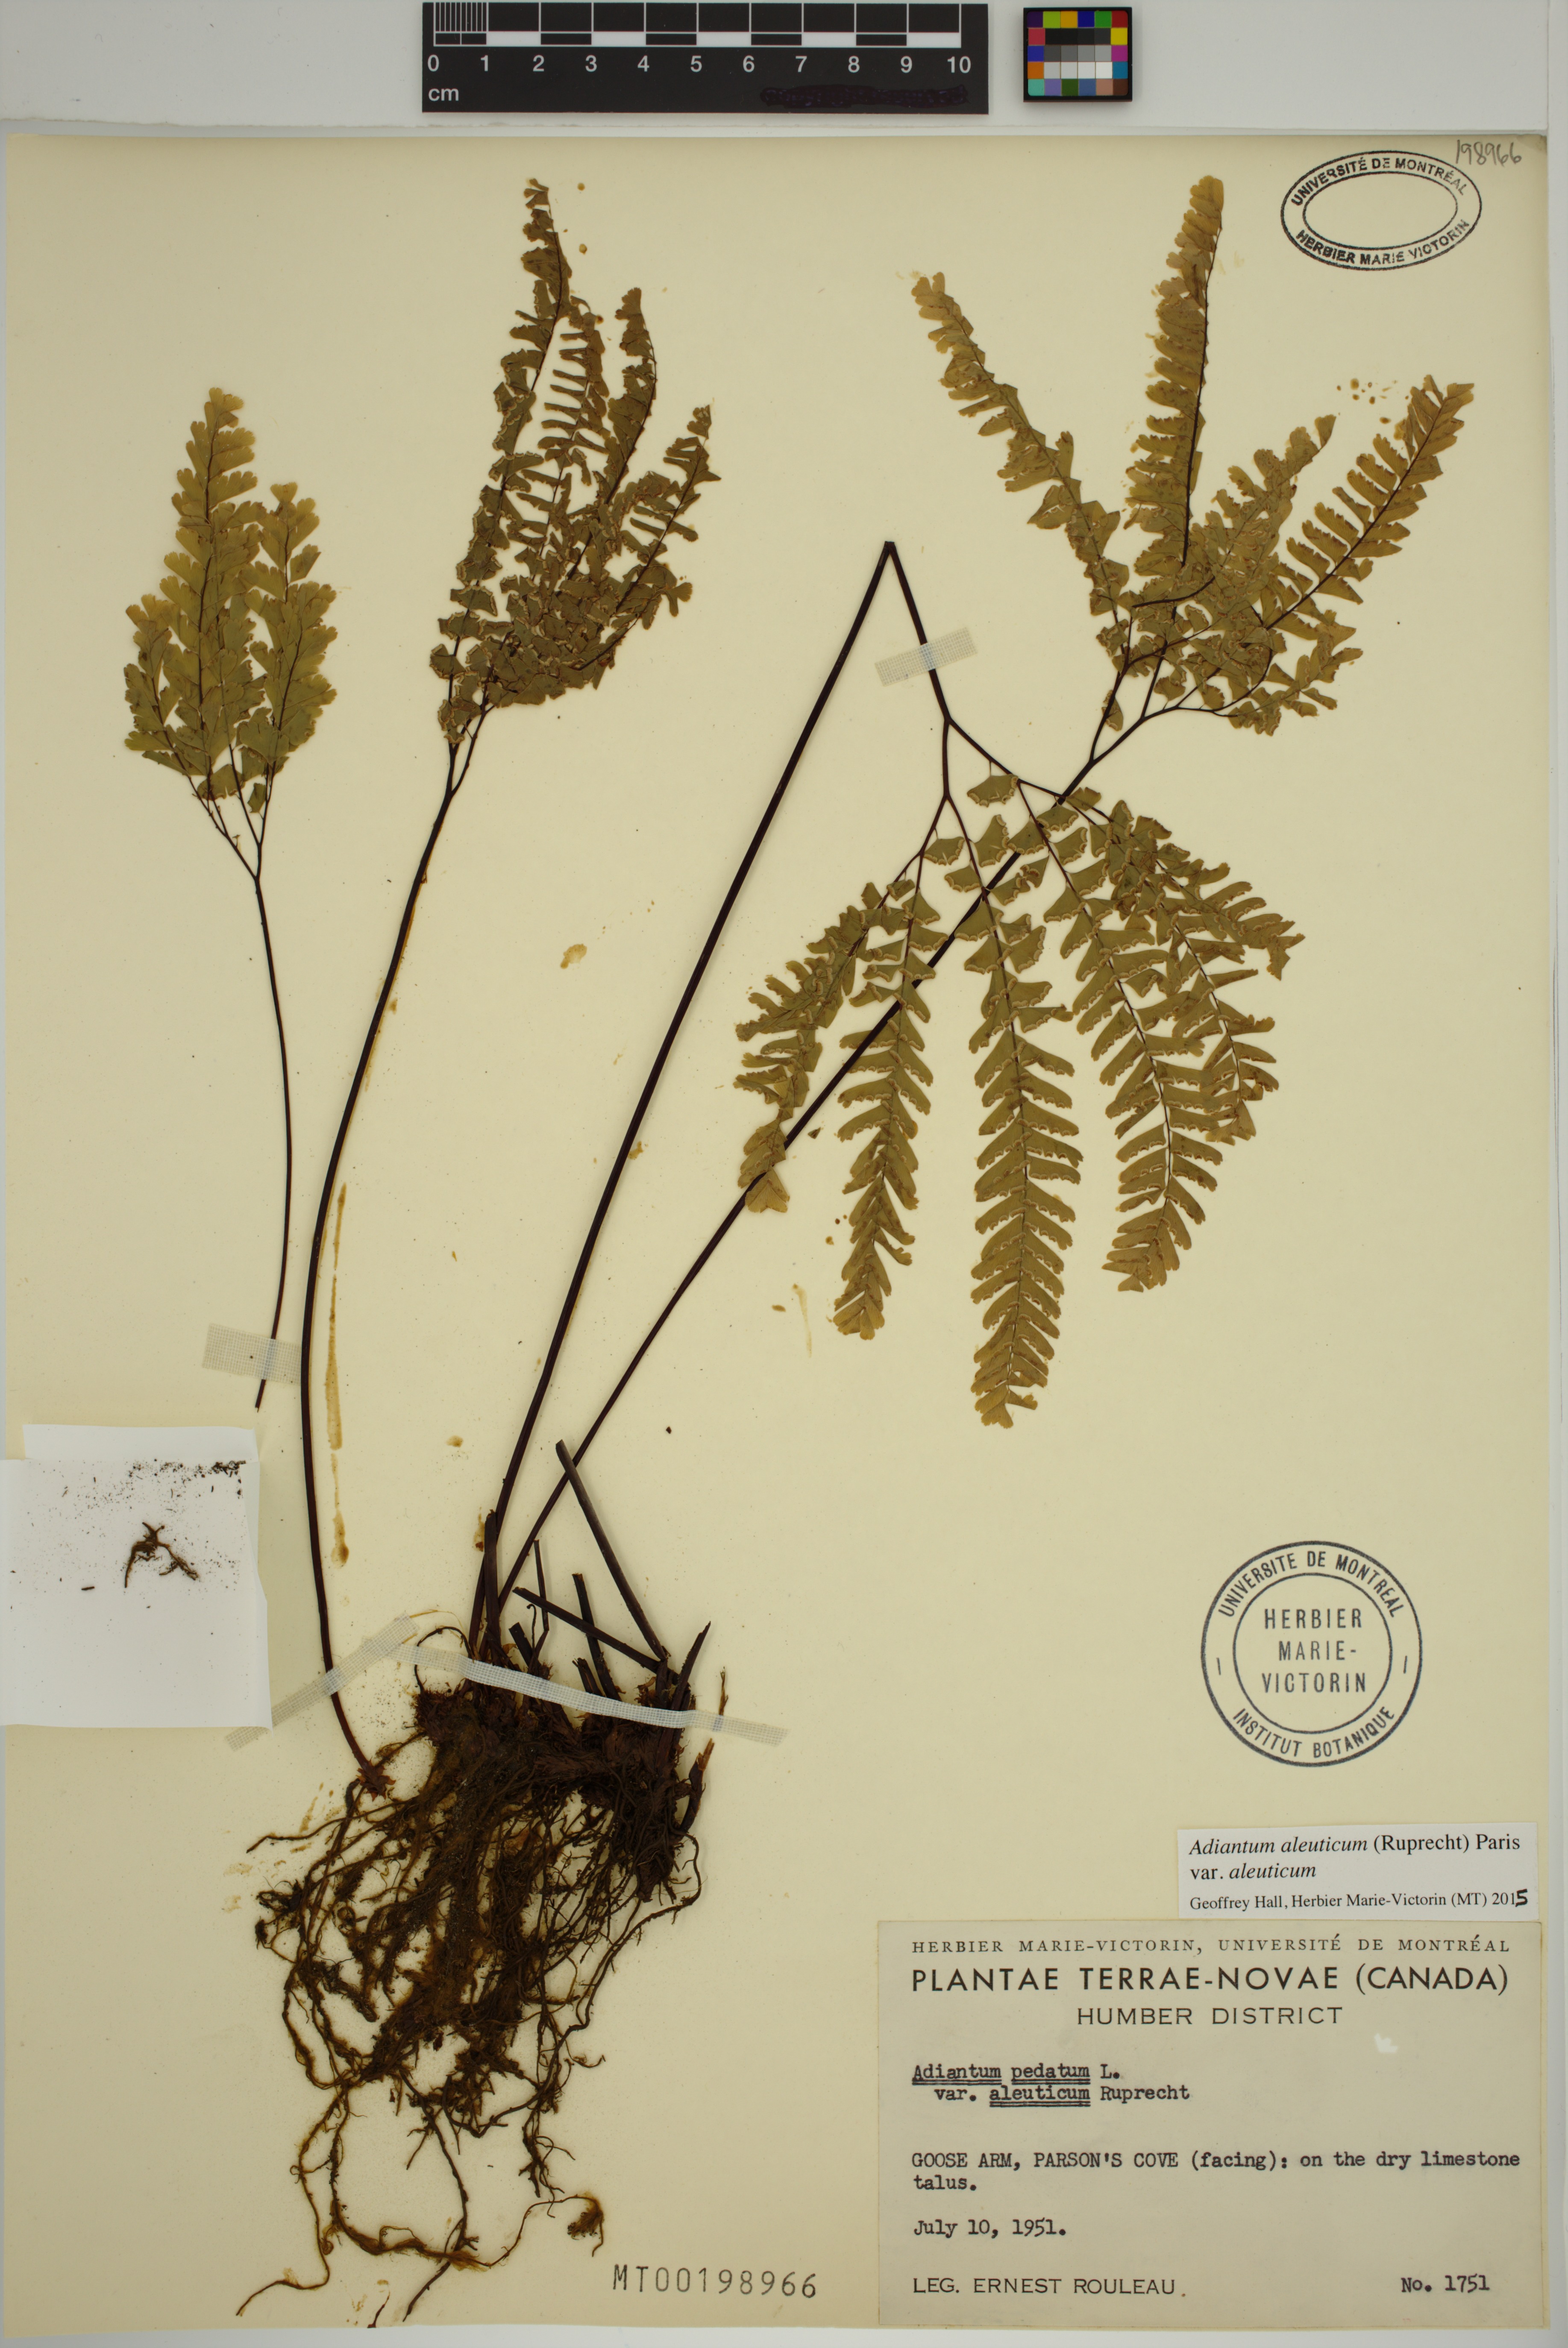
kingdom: Plantae
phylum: Tracheophyta
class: Polypodiopsida
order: Polypodiales
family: Pteridaceae
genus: Adiantum
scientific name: Adiantum aleuticum
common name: Aleutian maidenhair fern
